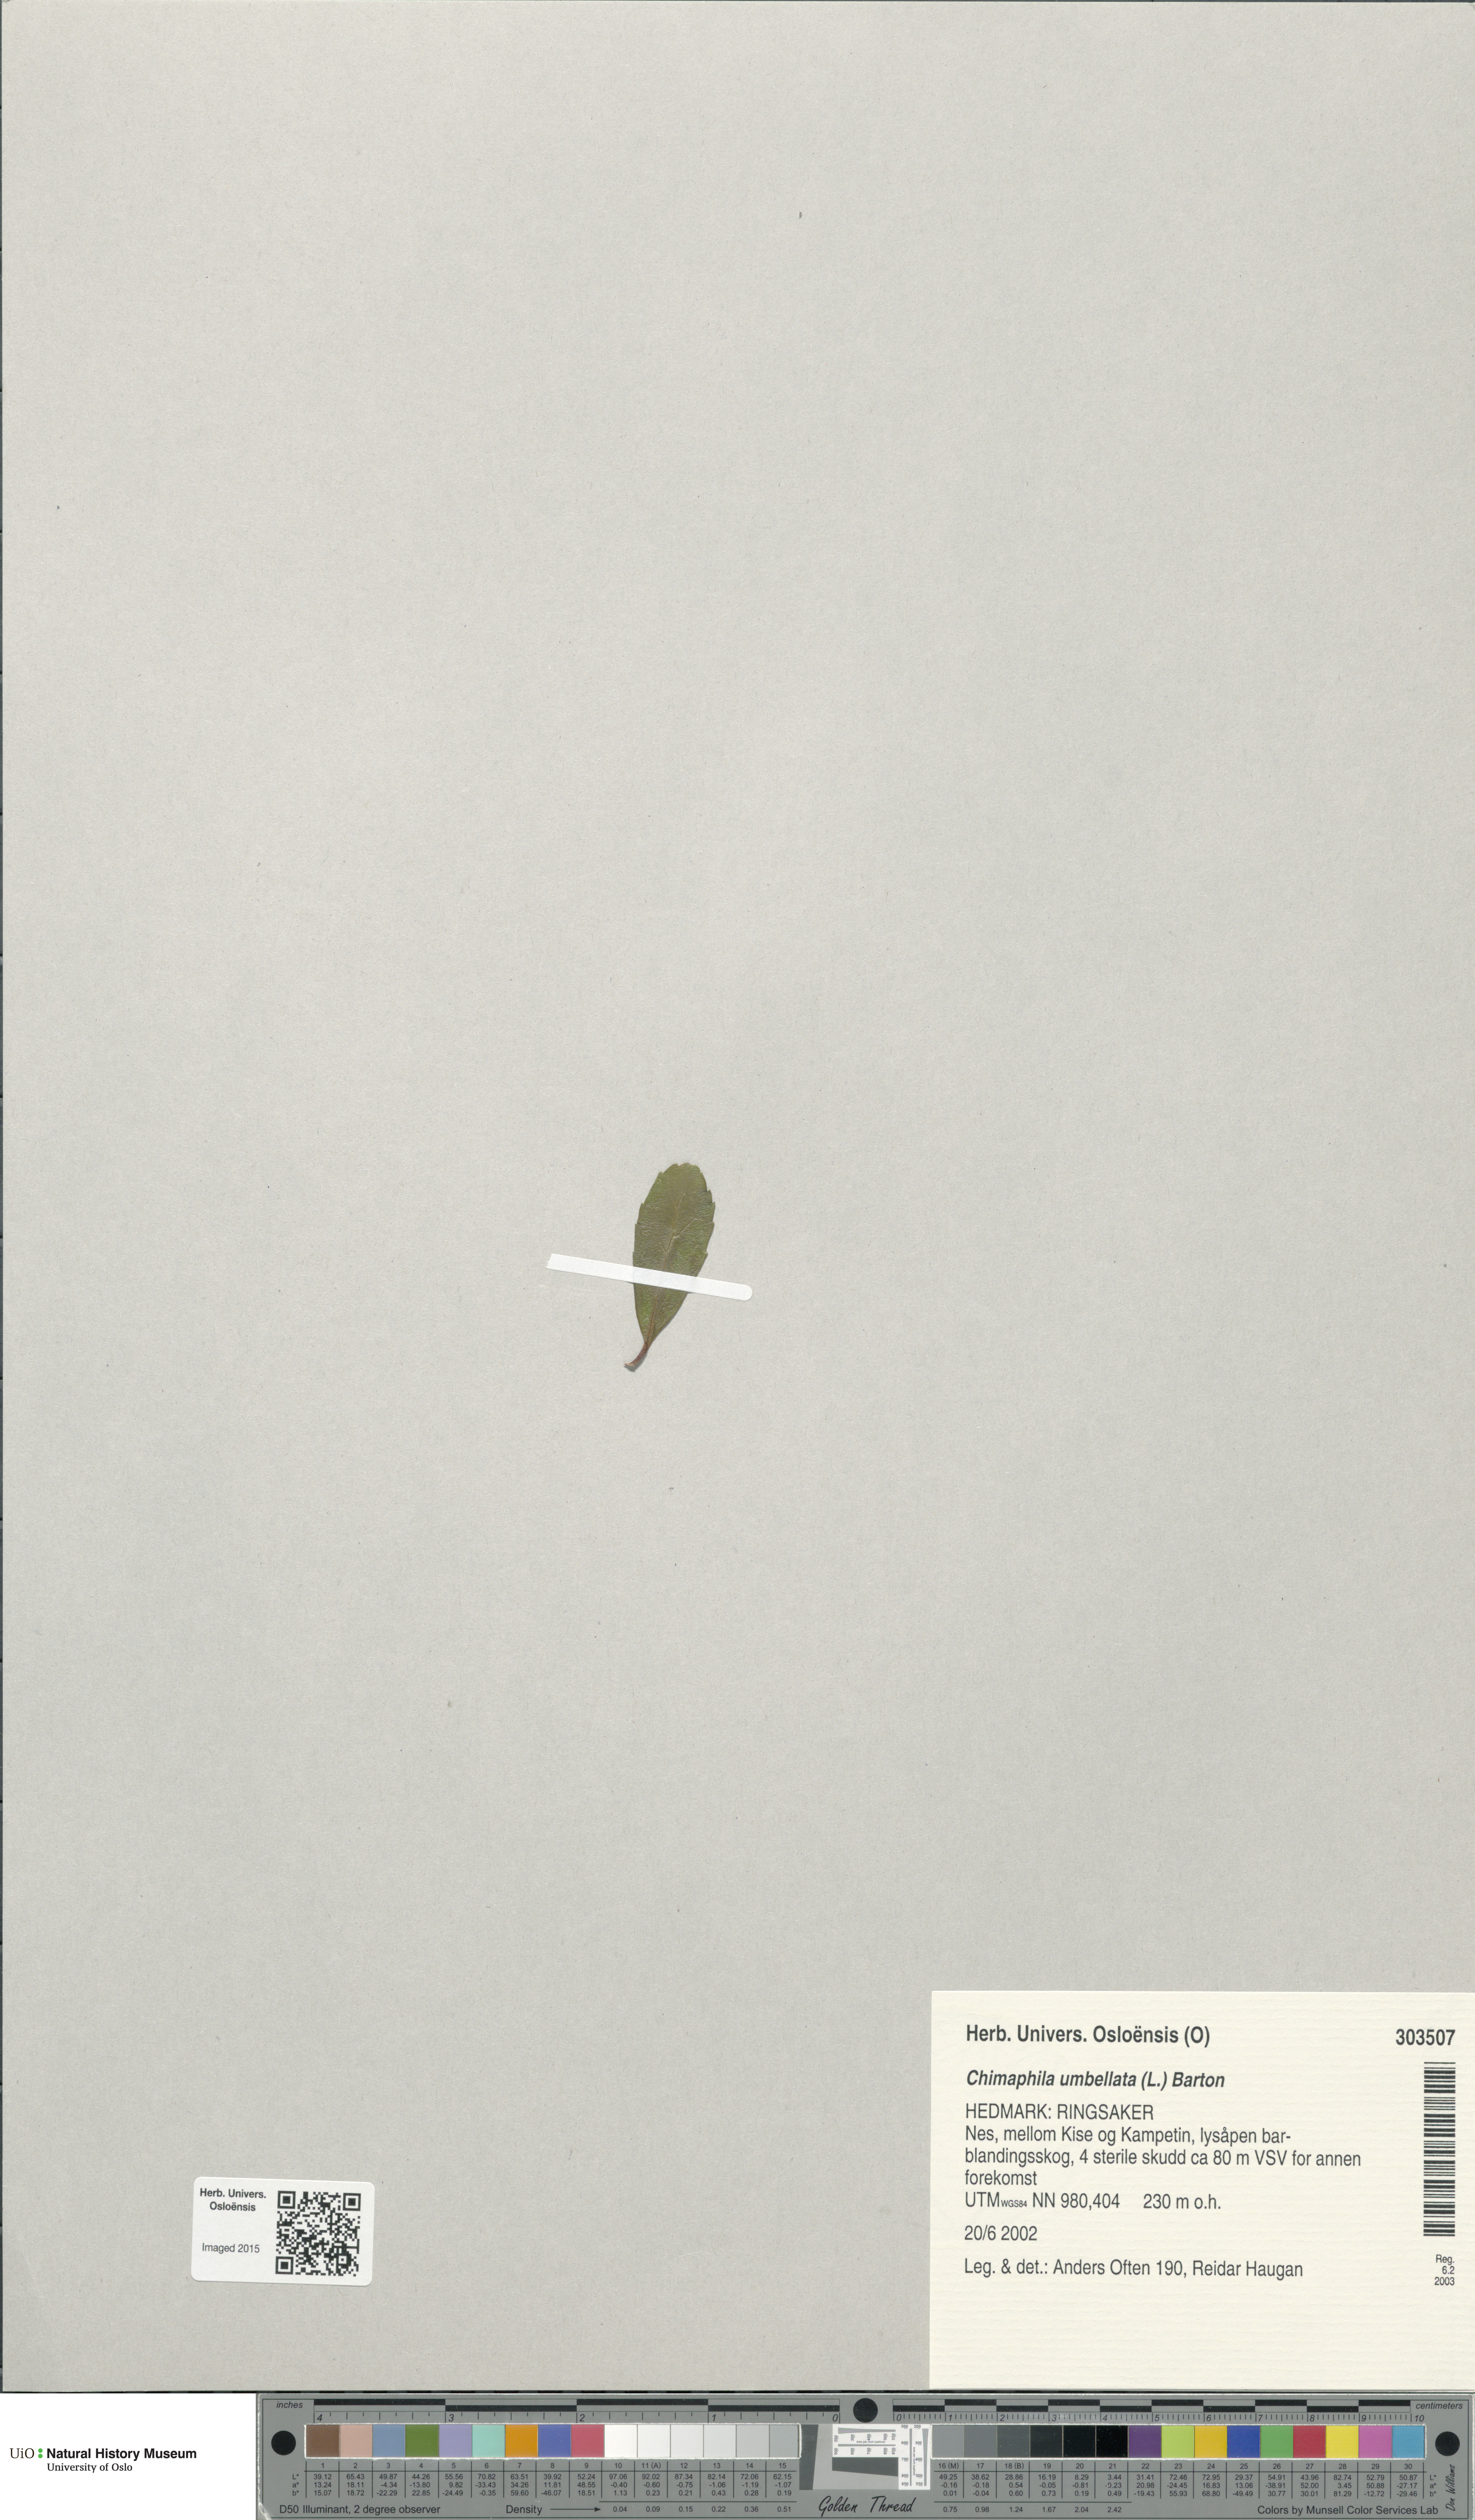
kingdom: Plantae
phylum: Tracheophyta
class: Magnoliopsida
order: Ericales
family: Ericaceae
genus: Chimaphila
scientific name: Chimaphila umbellata
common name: Pipsissewa
